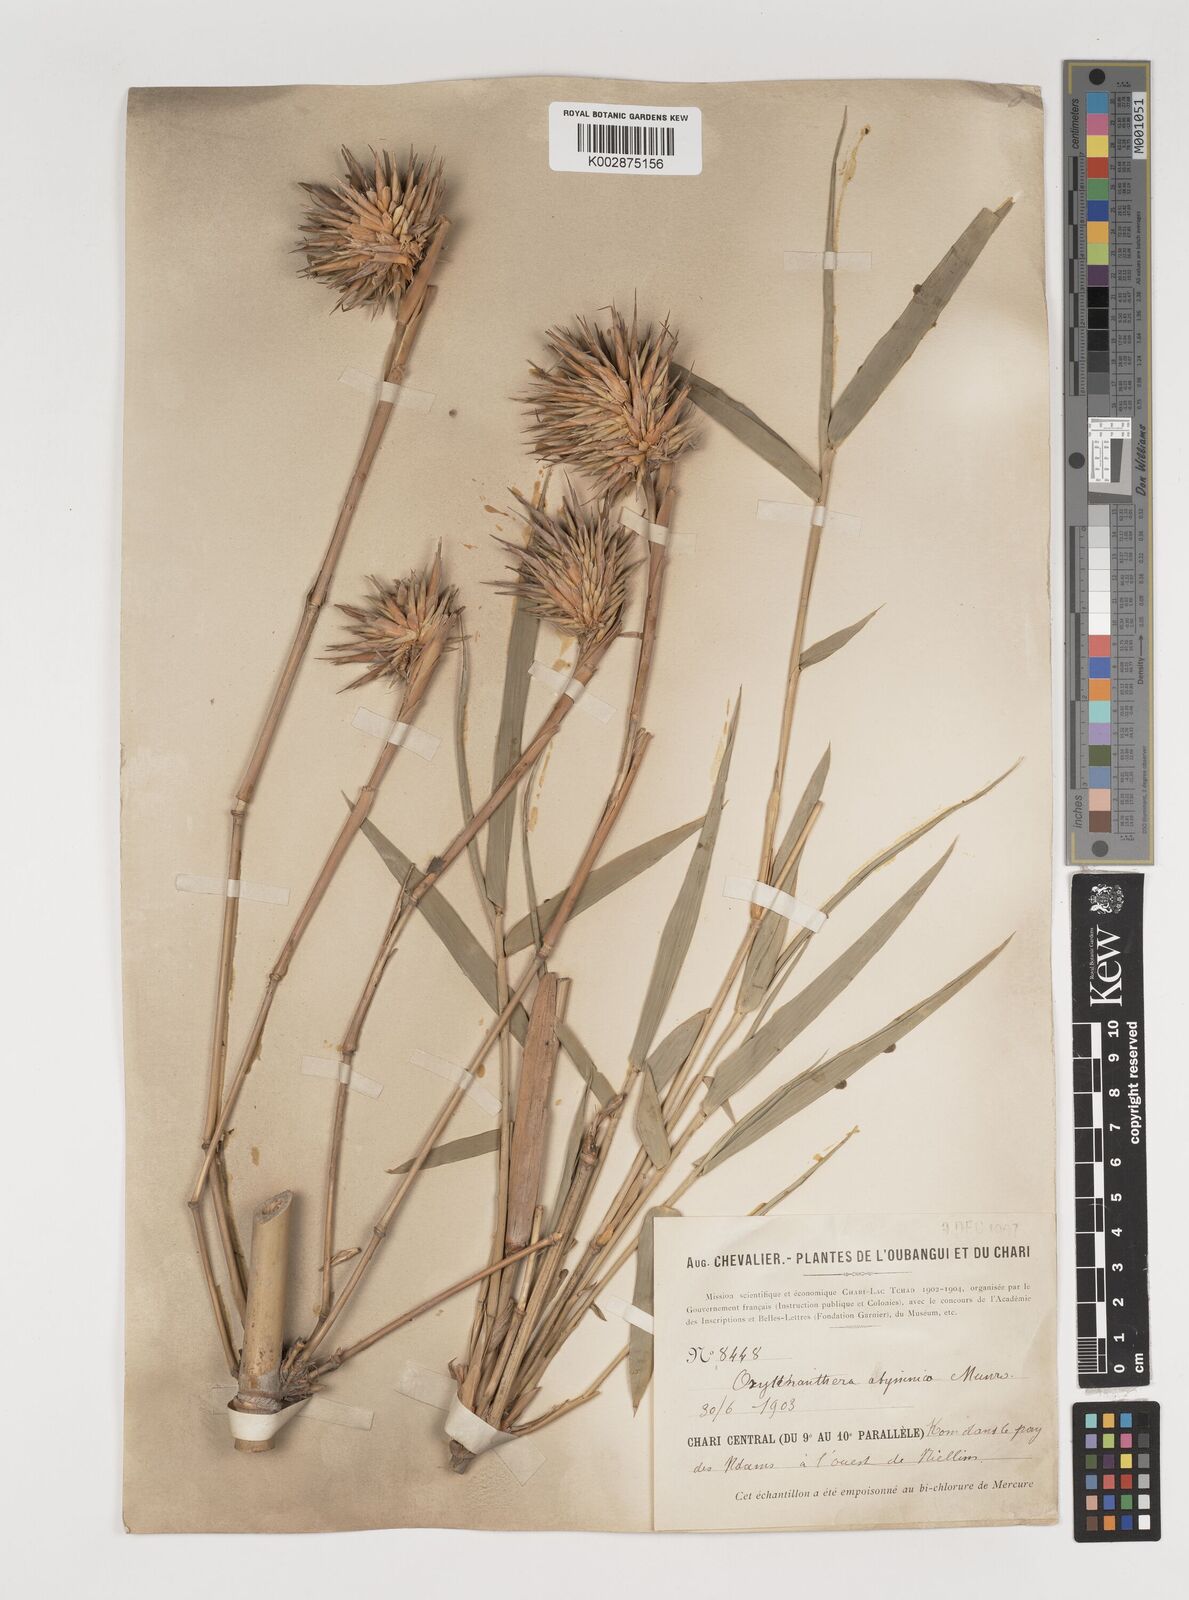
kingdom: Plantae
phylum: Tracheophyta
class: Liliopsida
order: Poales
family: Poaceae
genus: Oxytenanthera
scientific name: Oxytenanthera abyssinica
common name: Wine bamboo
